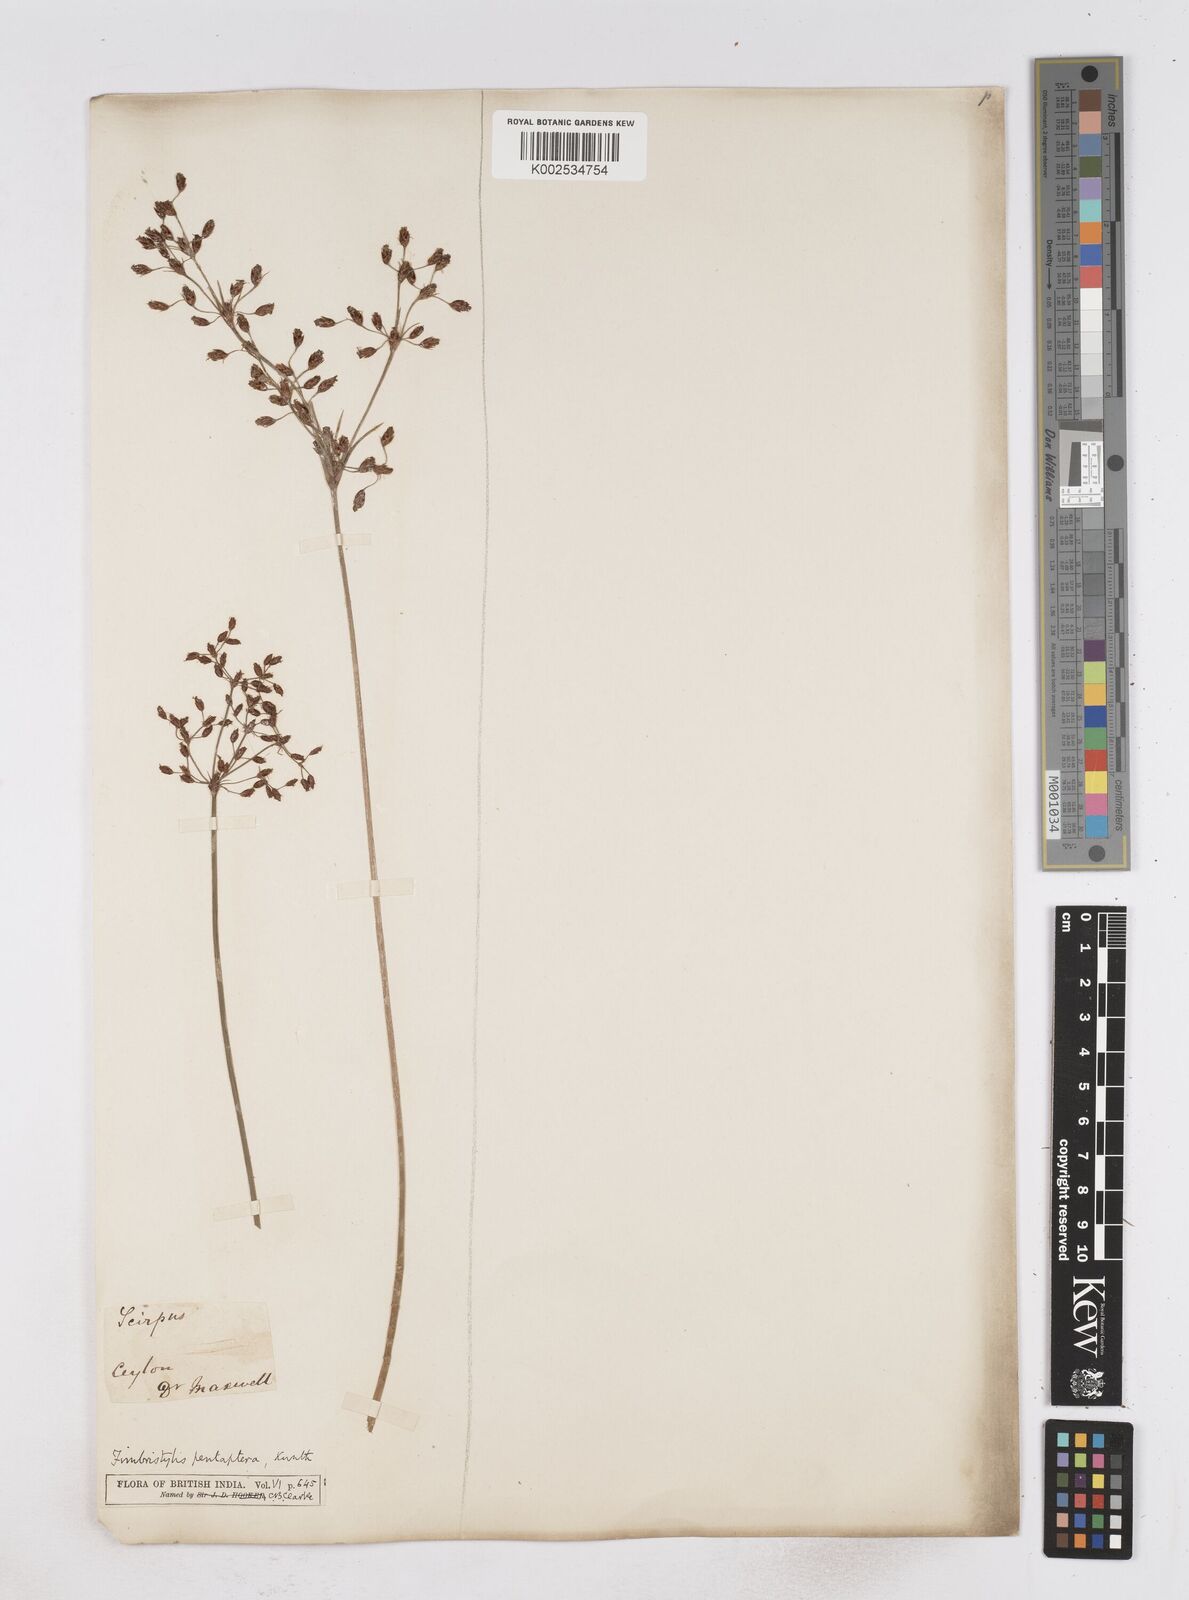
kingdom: Plantae
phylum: Tracheophyta
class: Liliopsida
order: Poales
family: Cyperaceae
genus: Fimbristylis
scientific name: Fimbristylis salbundia
